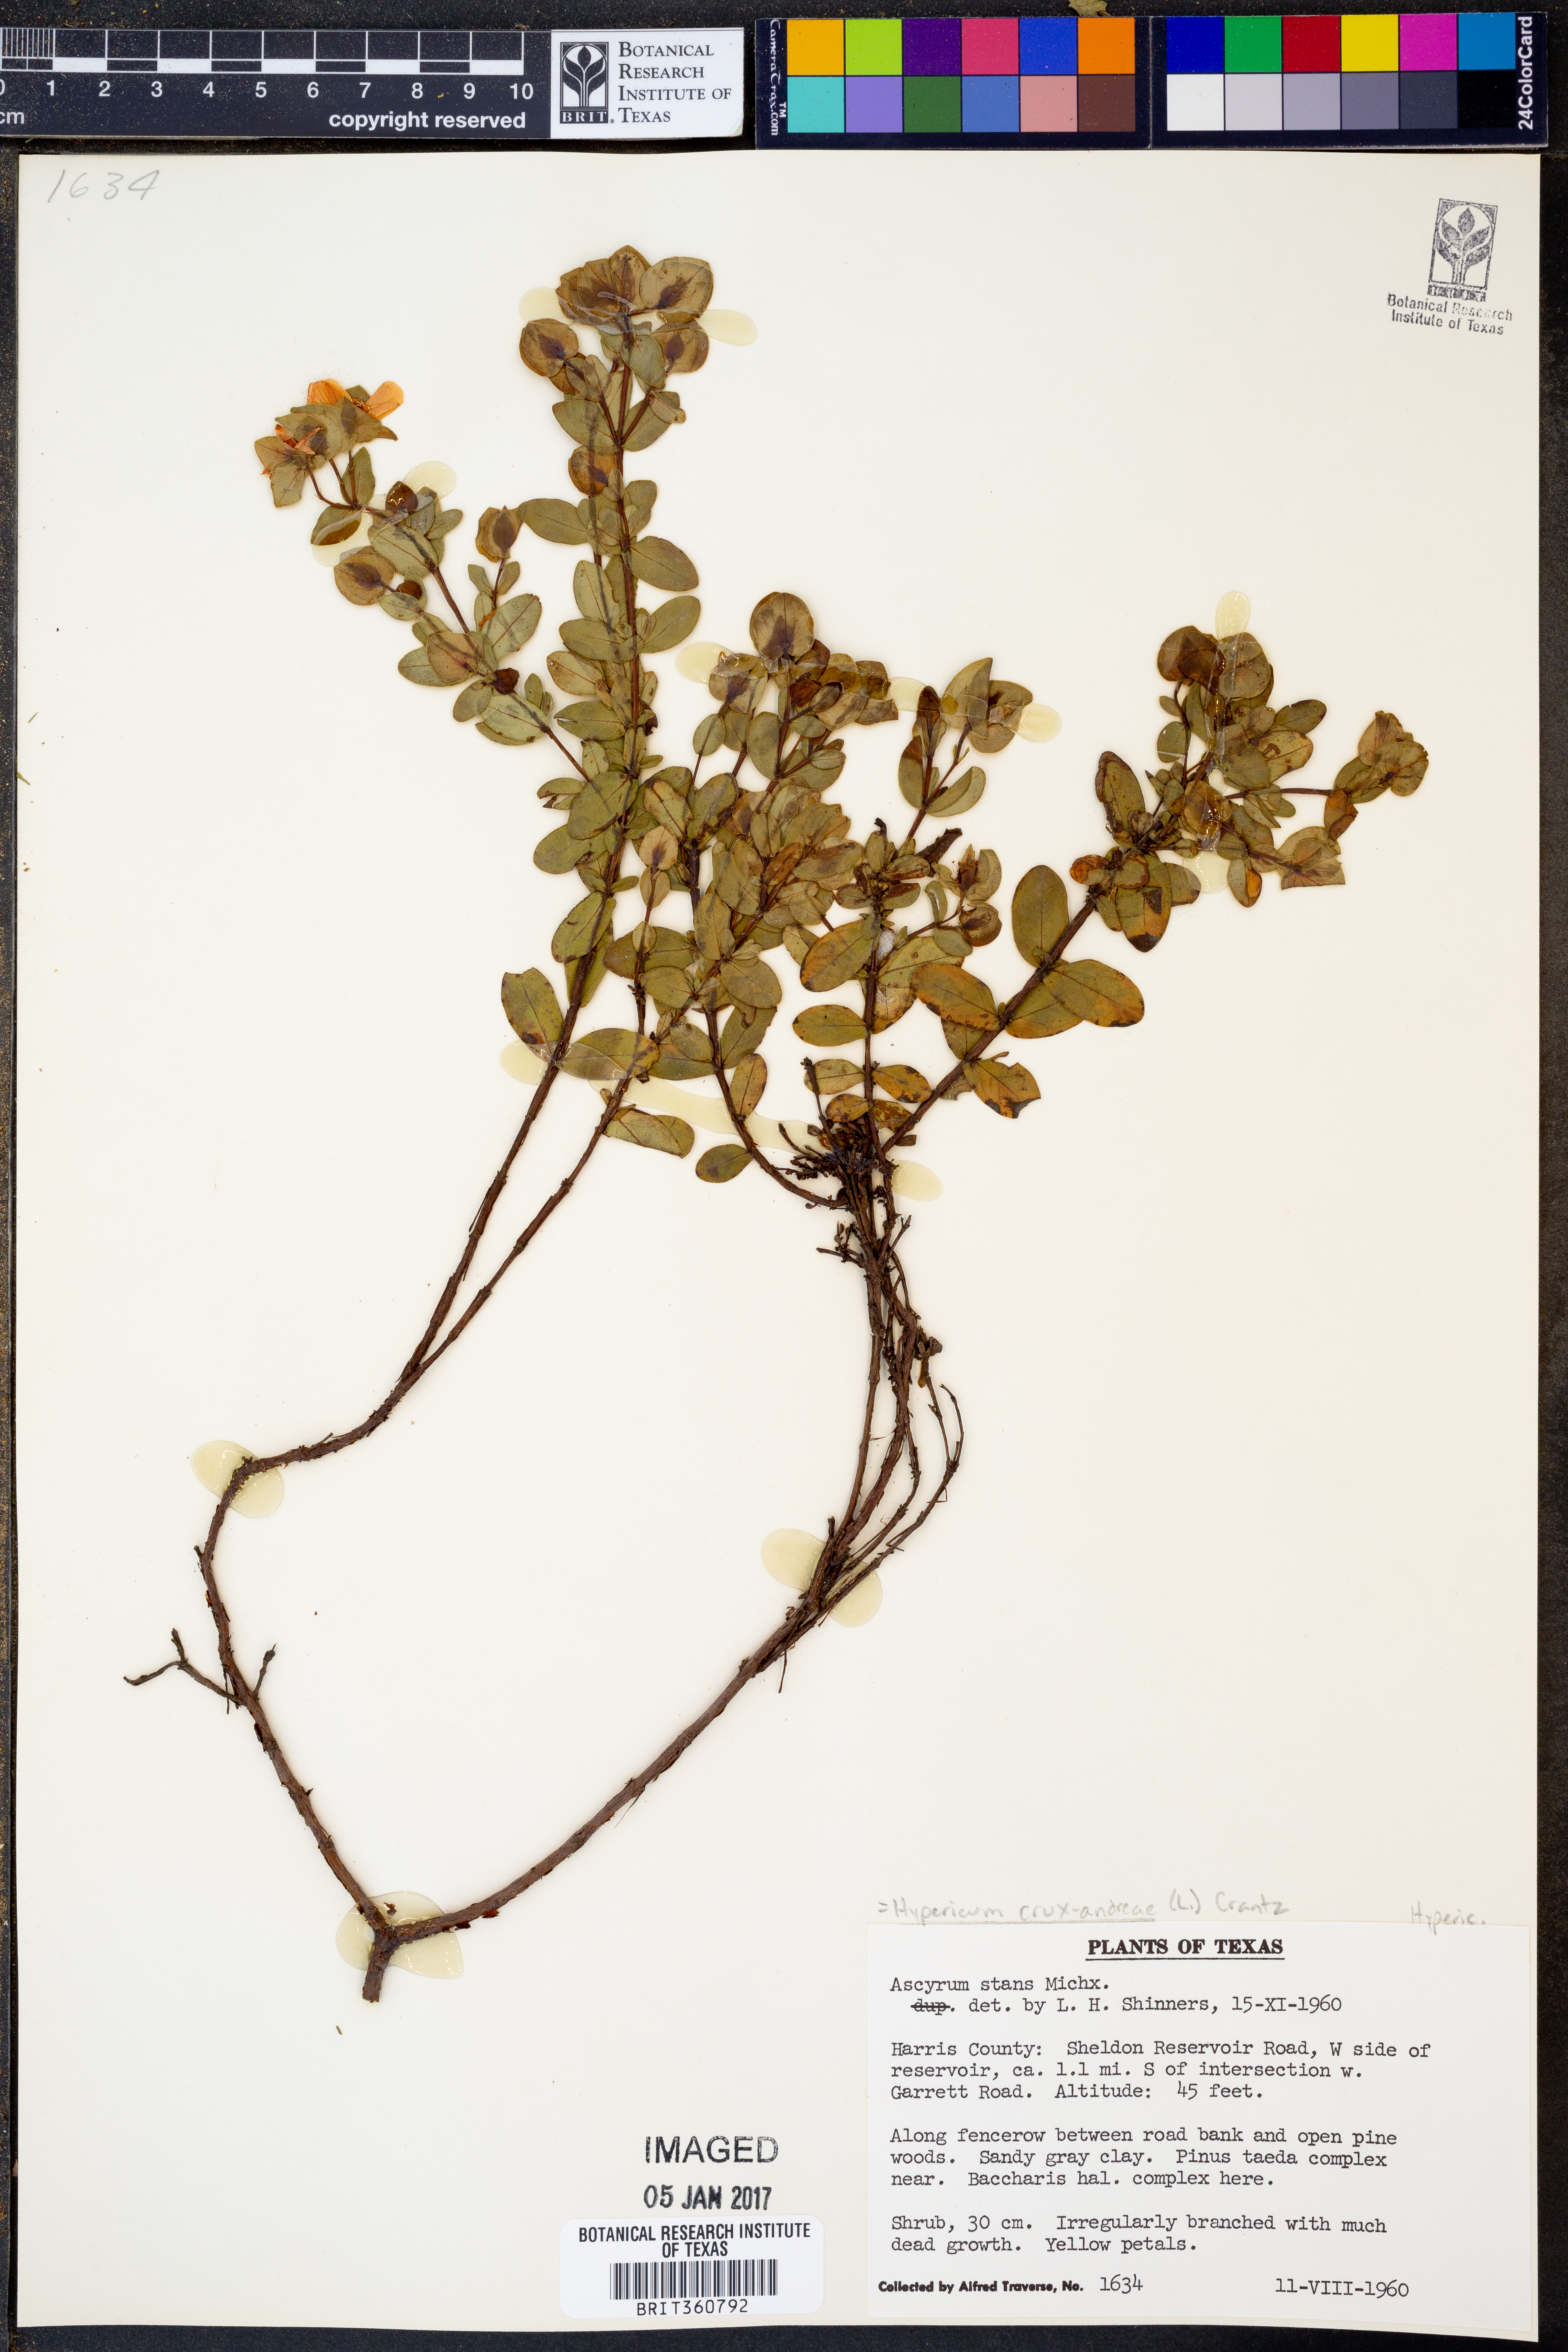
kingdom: Plantae
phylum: Tracheophyta
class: Magnoliopsida
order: Malpighiales
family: Hypericaceae
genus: Hypericum
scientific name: Hypericum crux-andreae
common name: St.-peter's-wort
